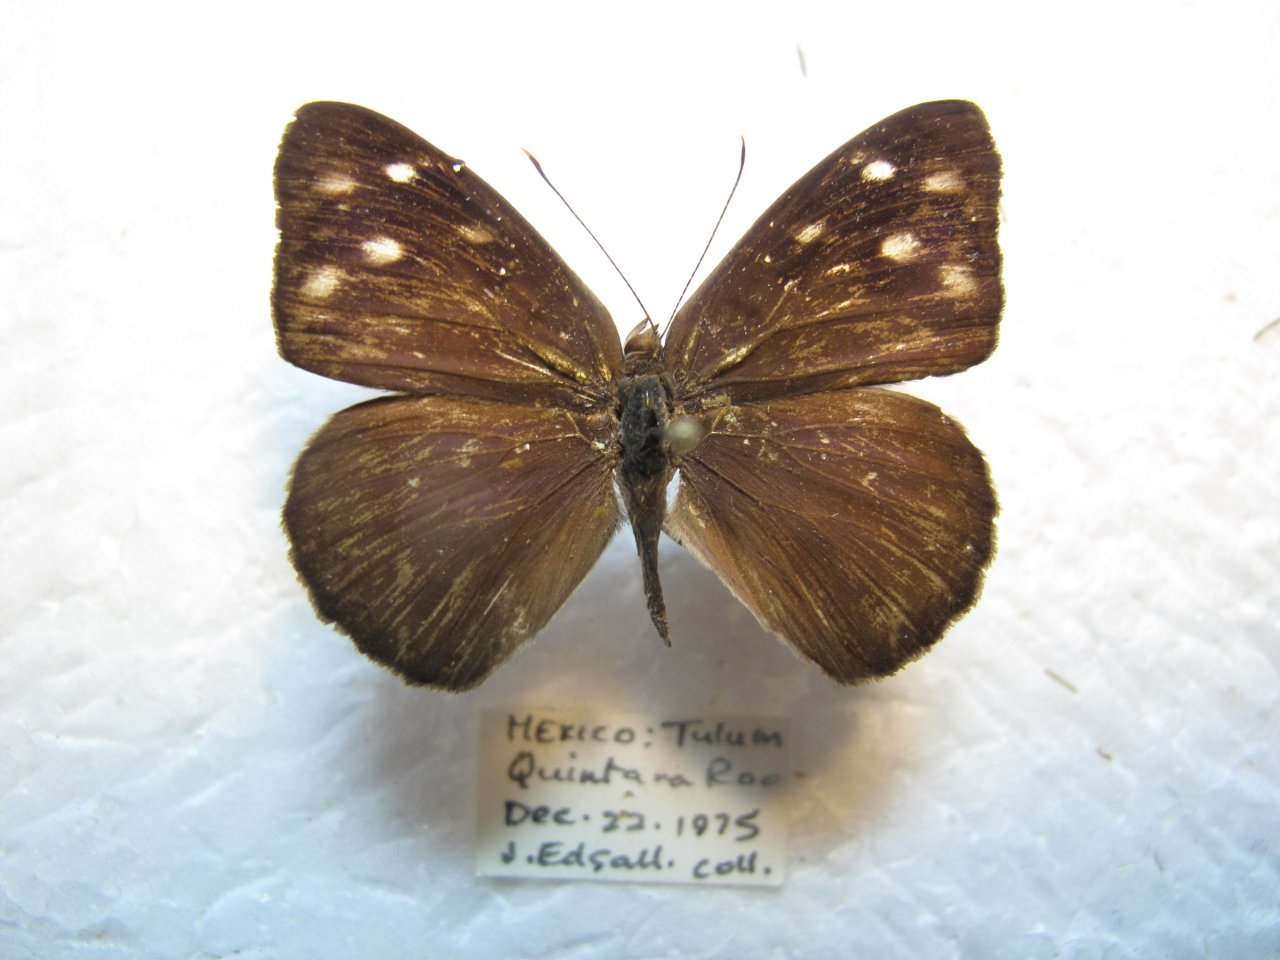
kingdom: Animalia
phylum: Arthropoda
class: Insecta
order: Lepidoptera
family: Nymphalidae
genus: Eunica
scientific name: Eunica monima
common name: Dingy Purplewing
